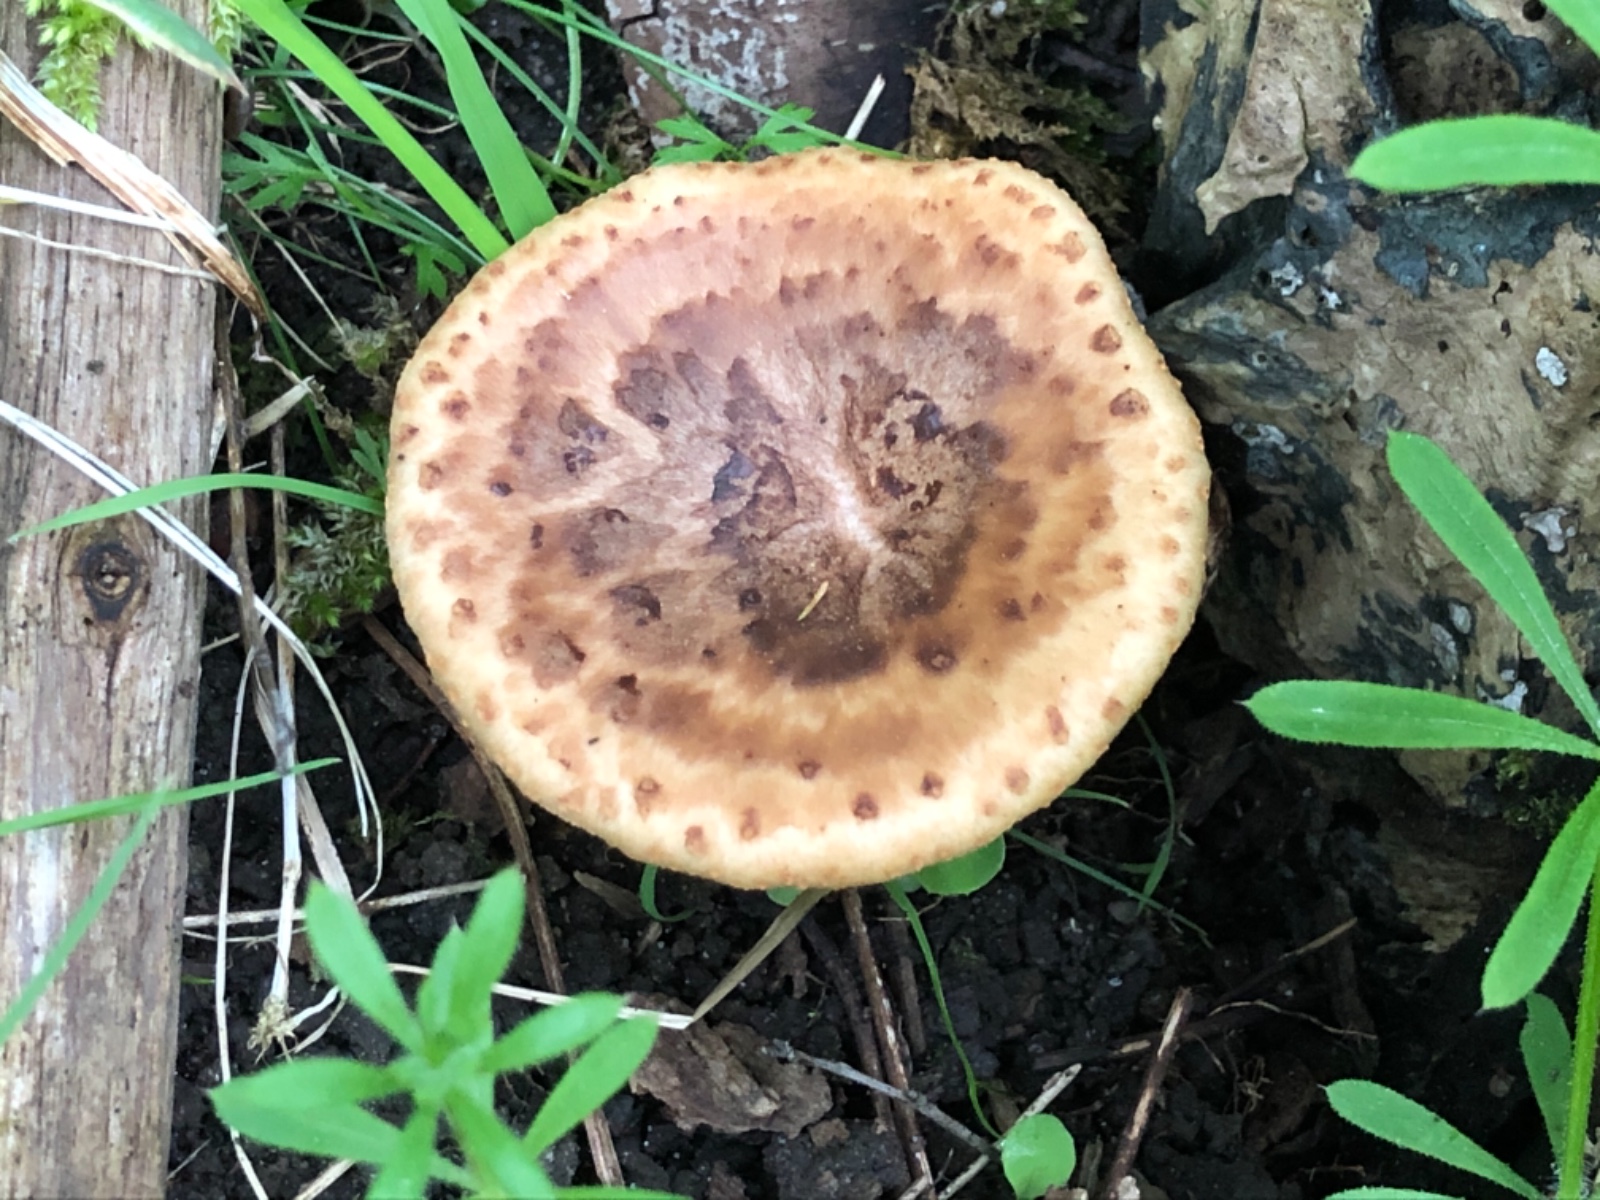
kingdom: Fungi
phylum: Basidiomycota
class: Agaricomycetes
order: Polyporales
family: Polyporaceae
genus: Cerioporus
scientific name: Cerioporus squamosus
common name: skællet stilkporesvamp
